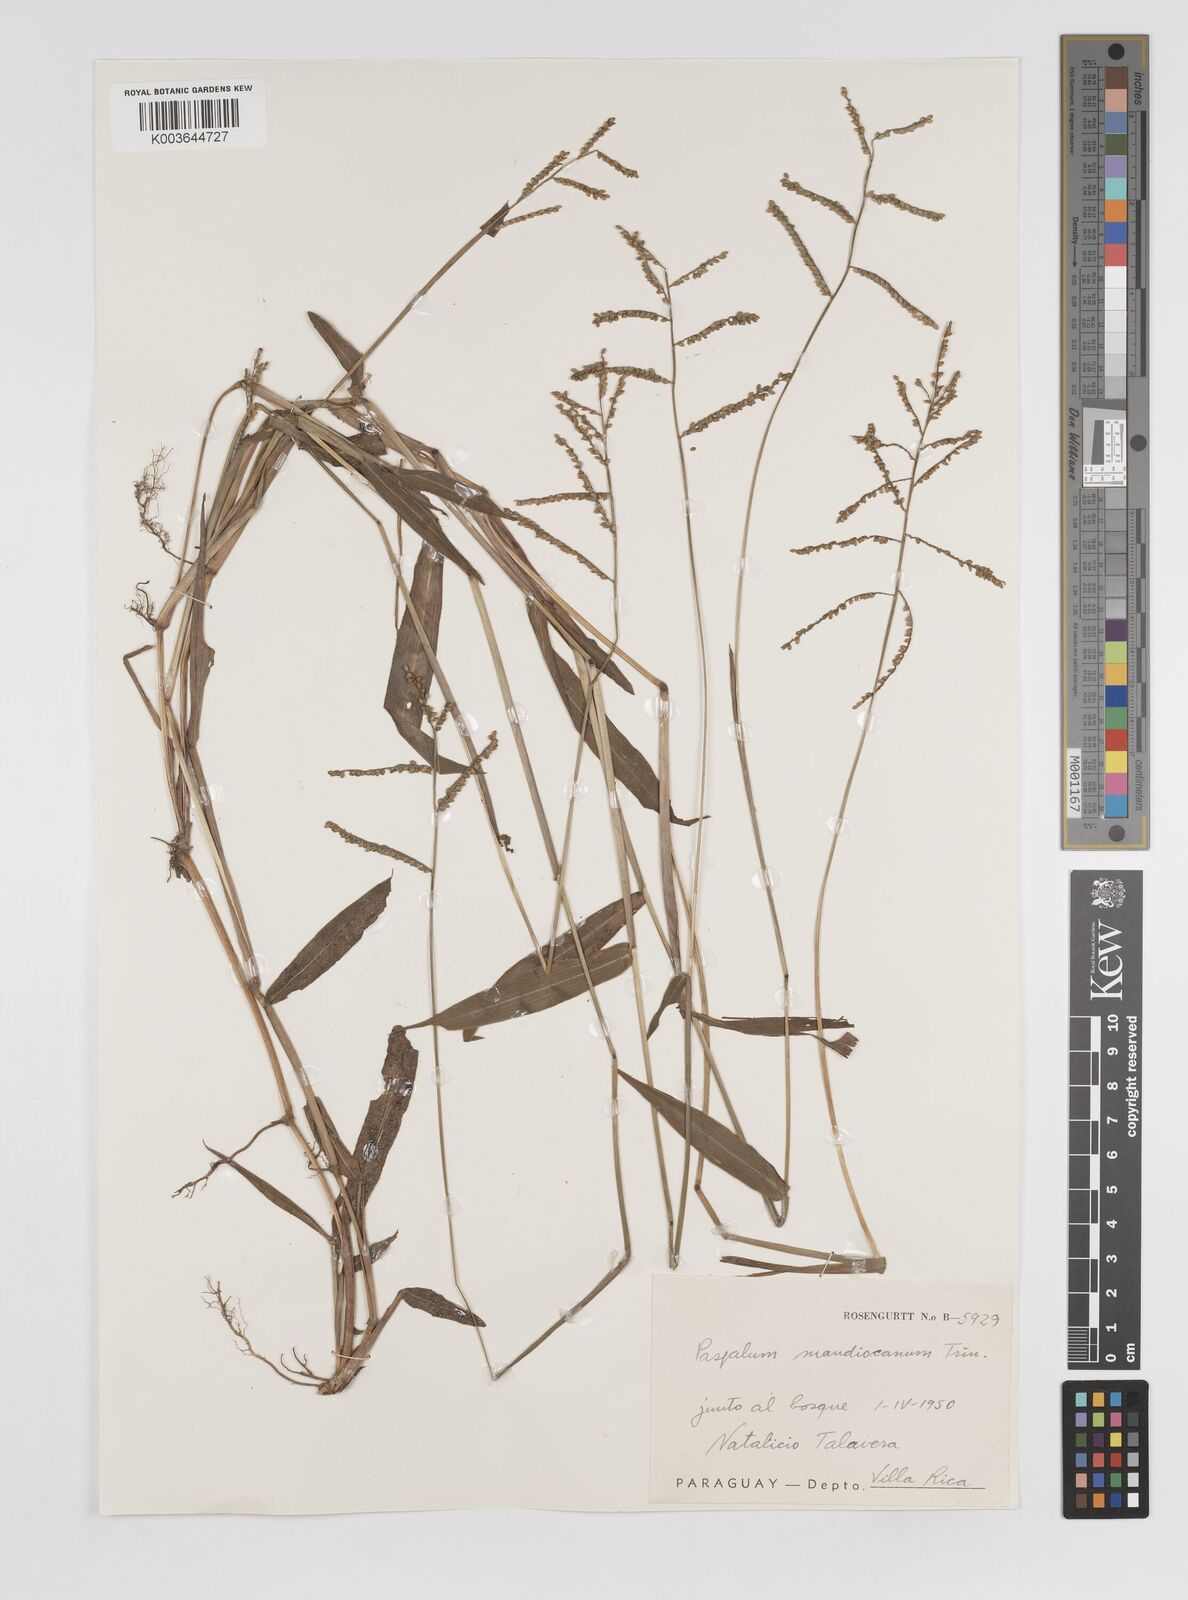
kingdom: Plantae
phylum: Tracheophyta
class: Liliopsida
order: Poales
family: Poaceae
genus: Paspalum
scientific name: Paspalum mandiocanum
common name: Paspalum
